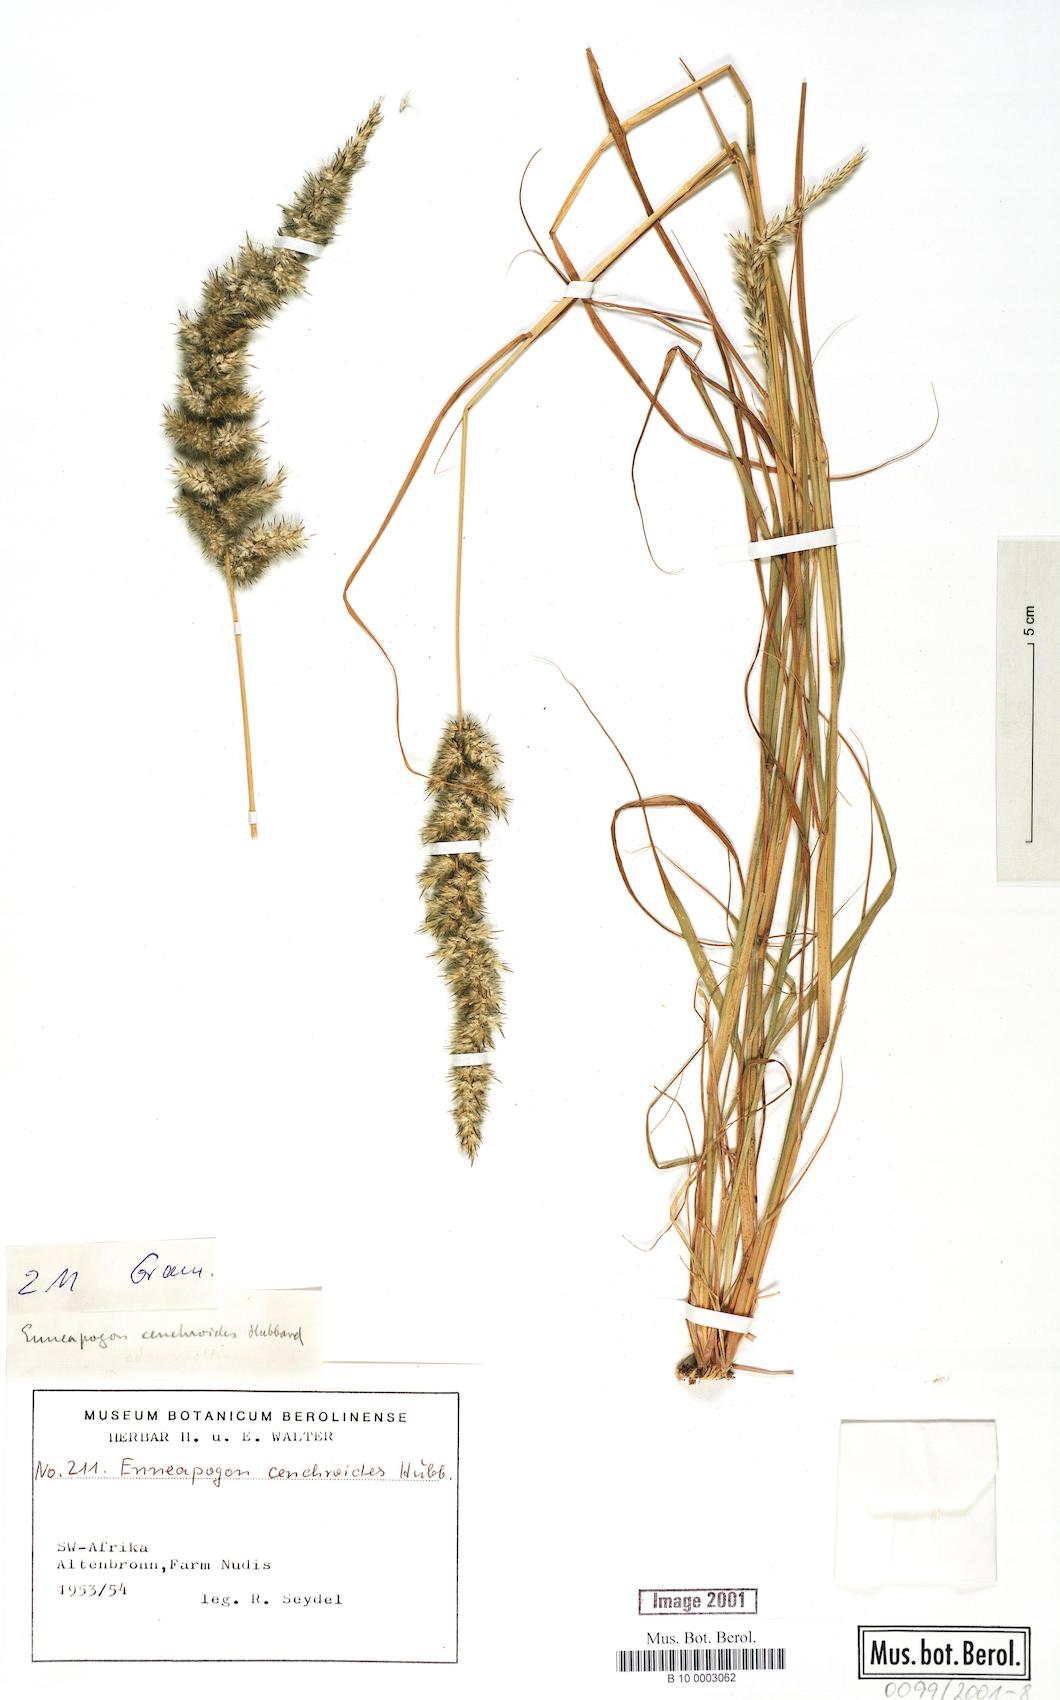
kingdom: Plantae
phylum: Tracheophyta
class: Liliopsida
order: Poales
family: Poaceae
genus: Enneapogon
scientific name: Enneapogon cenchroides
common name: Soft feather pappusgrass
